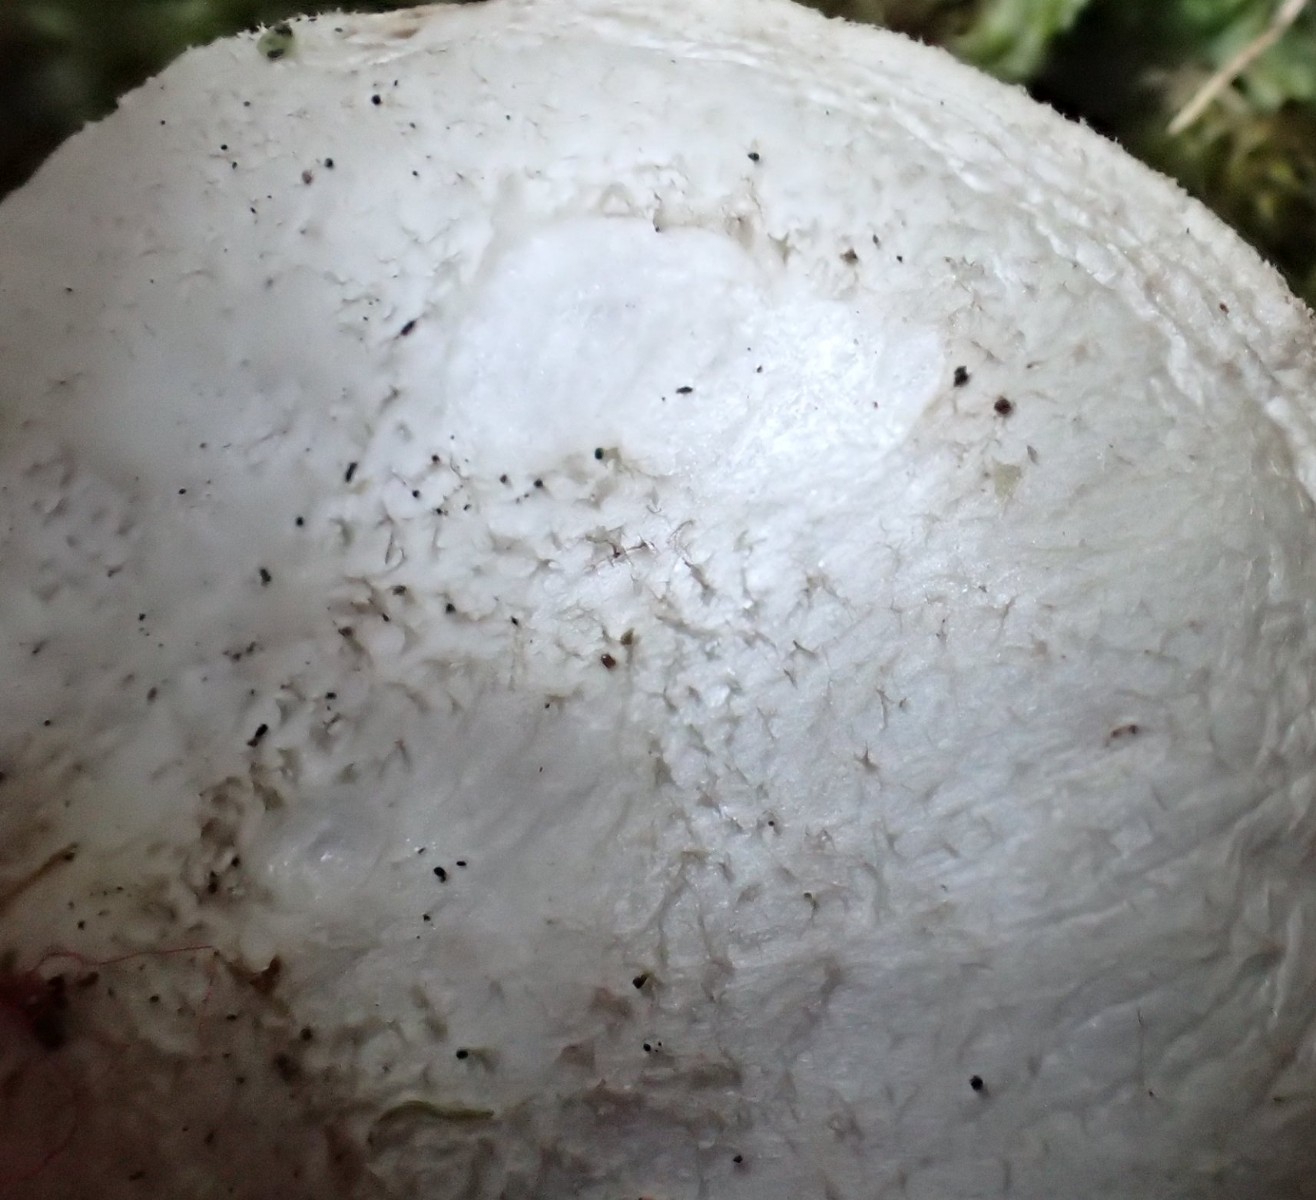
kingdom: Fungi
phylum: Basidiomycota
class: Agaricomycetes
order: Agaricales
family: Pluteaceae
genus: Pluteus
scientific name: Pluteus pouzarianus
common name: plantage-skærmhat
